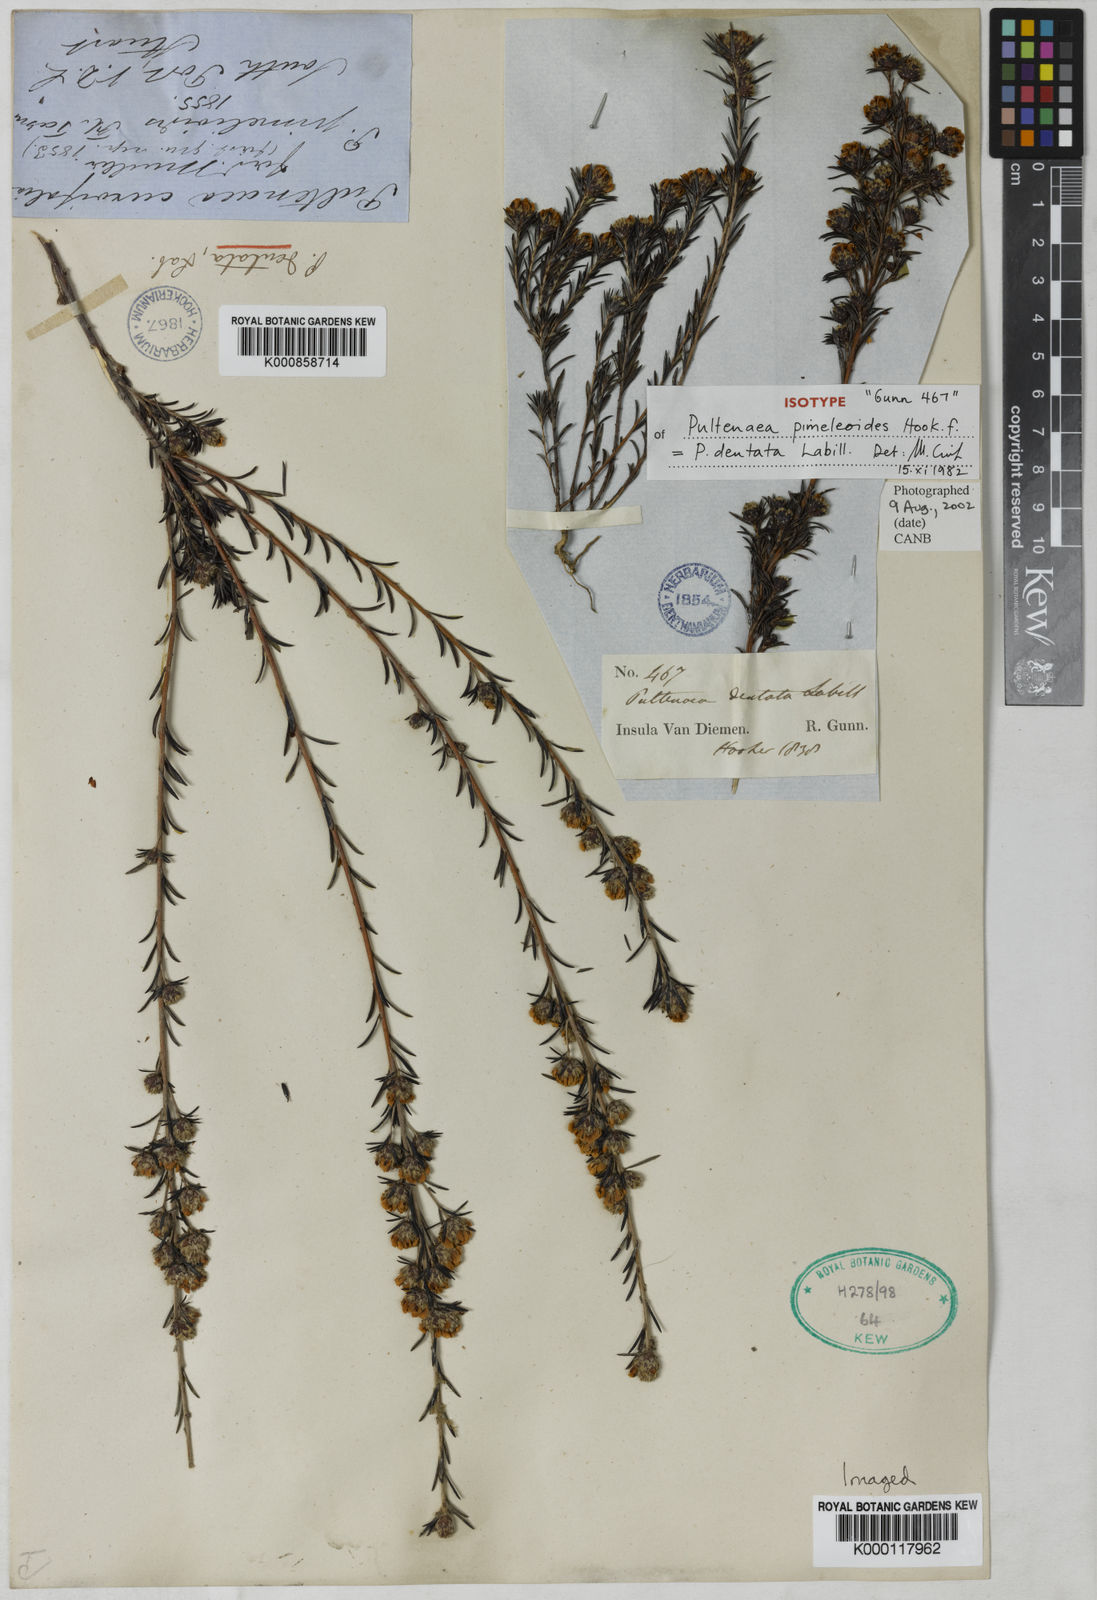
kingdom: Plantae
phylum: Tracheophyta
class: Magnoliopsida
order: Fabales
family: Fabaceae
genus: Pultenaea
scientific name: Pultenaea dentata
